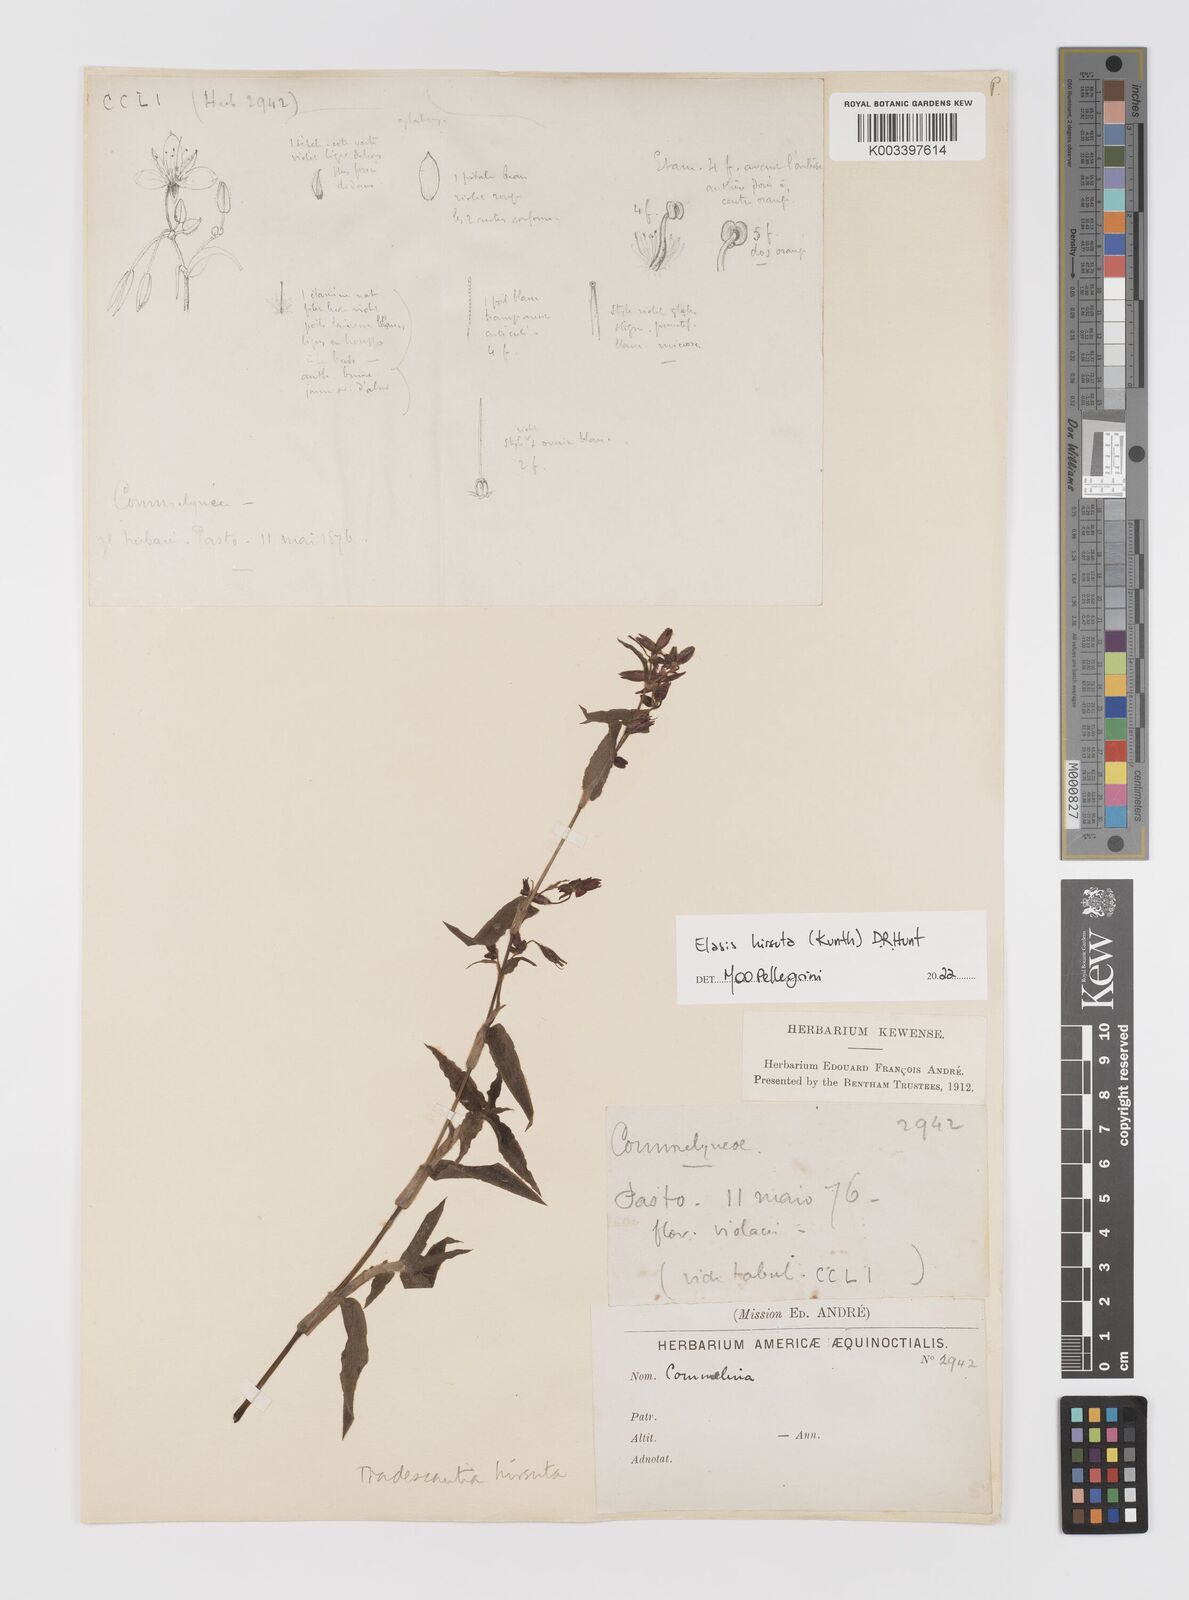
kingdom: Plantae
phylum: Tracheophyta
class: Liliopsida
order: Commelinales
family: Commelinaceae
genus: Elasis
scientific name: Elasis hirsuta
